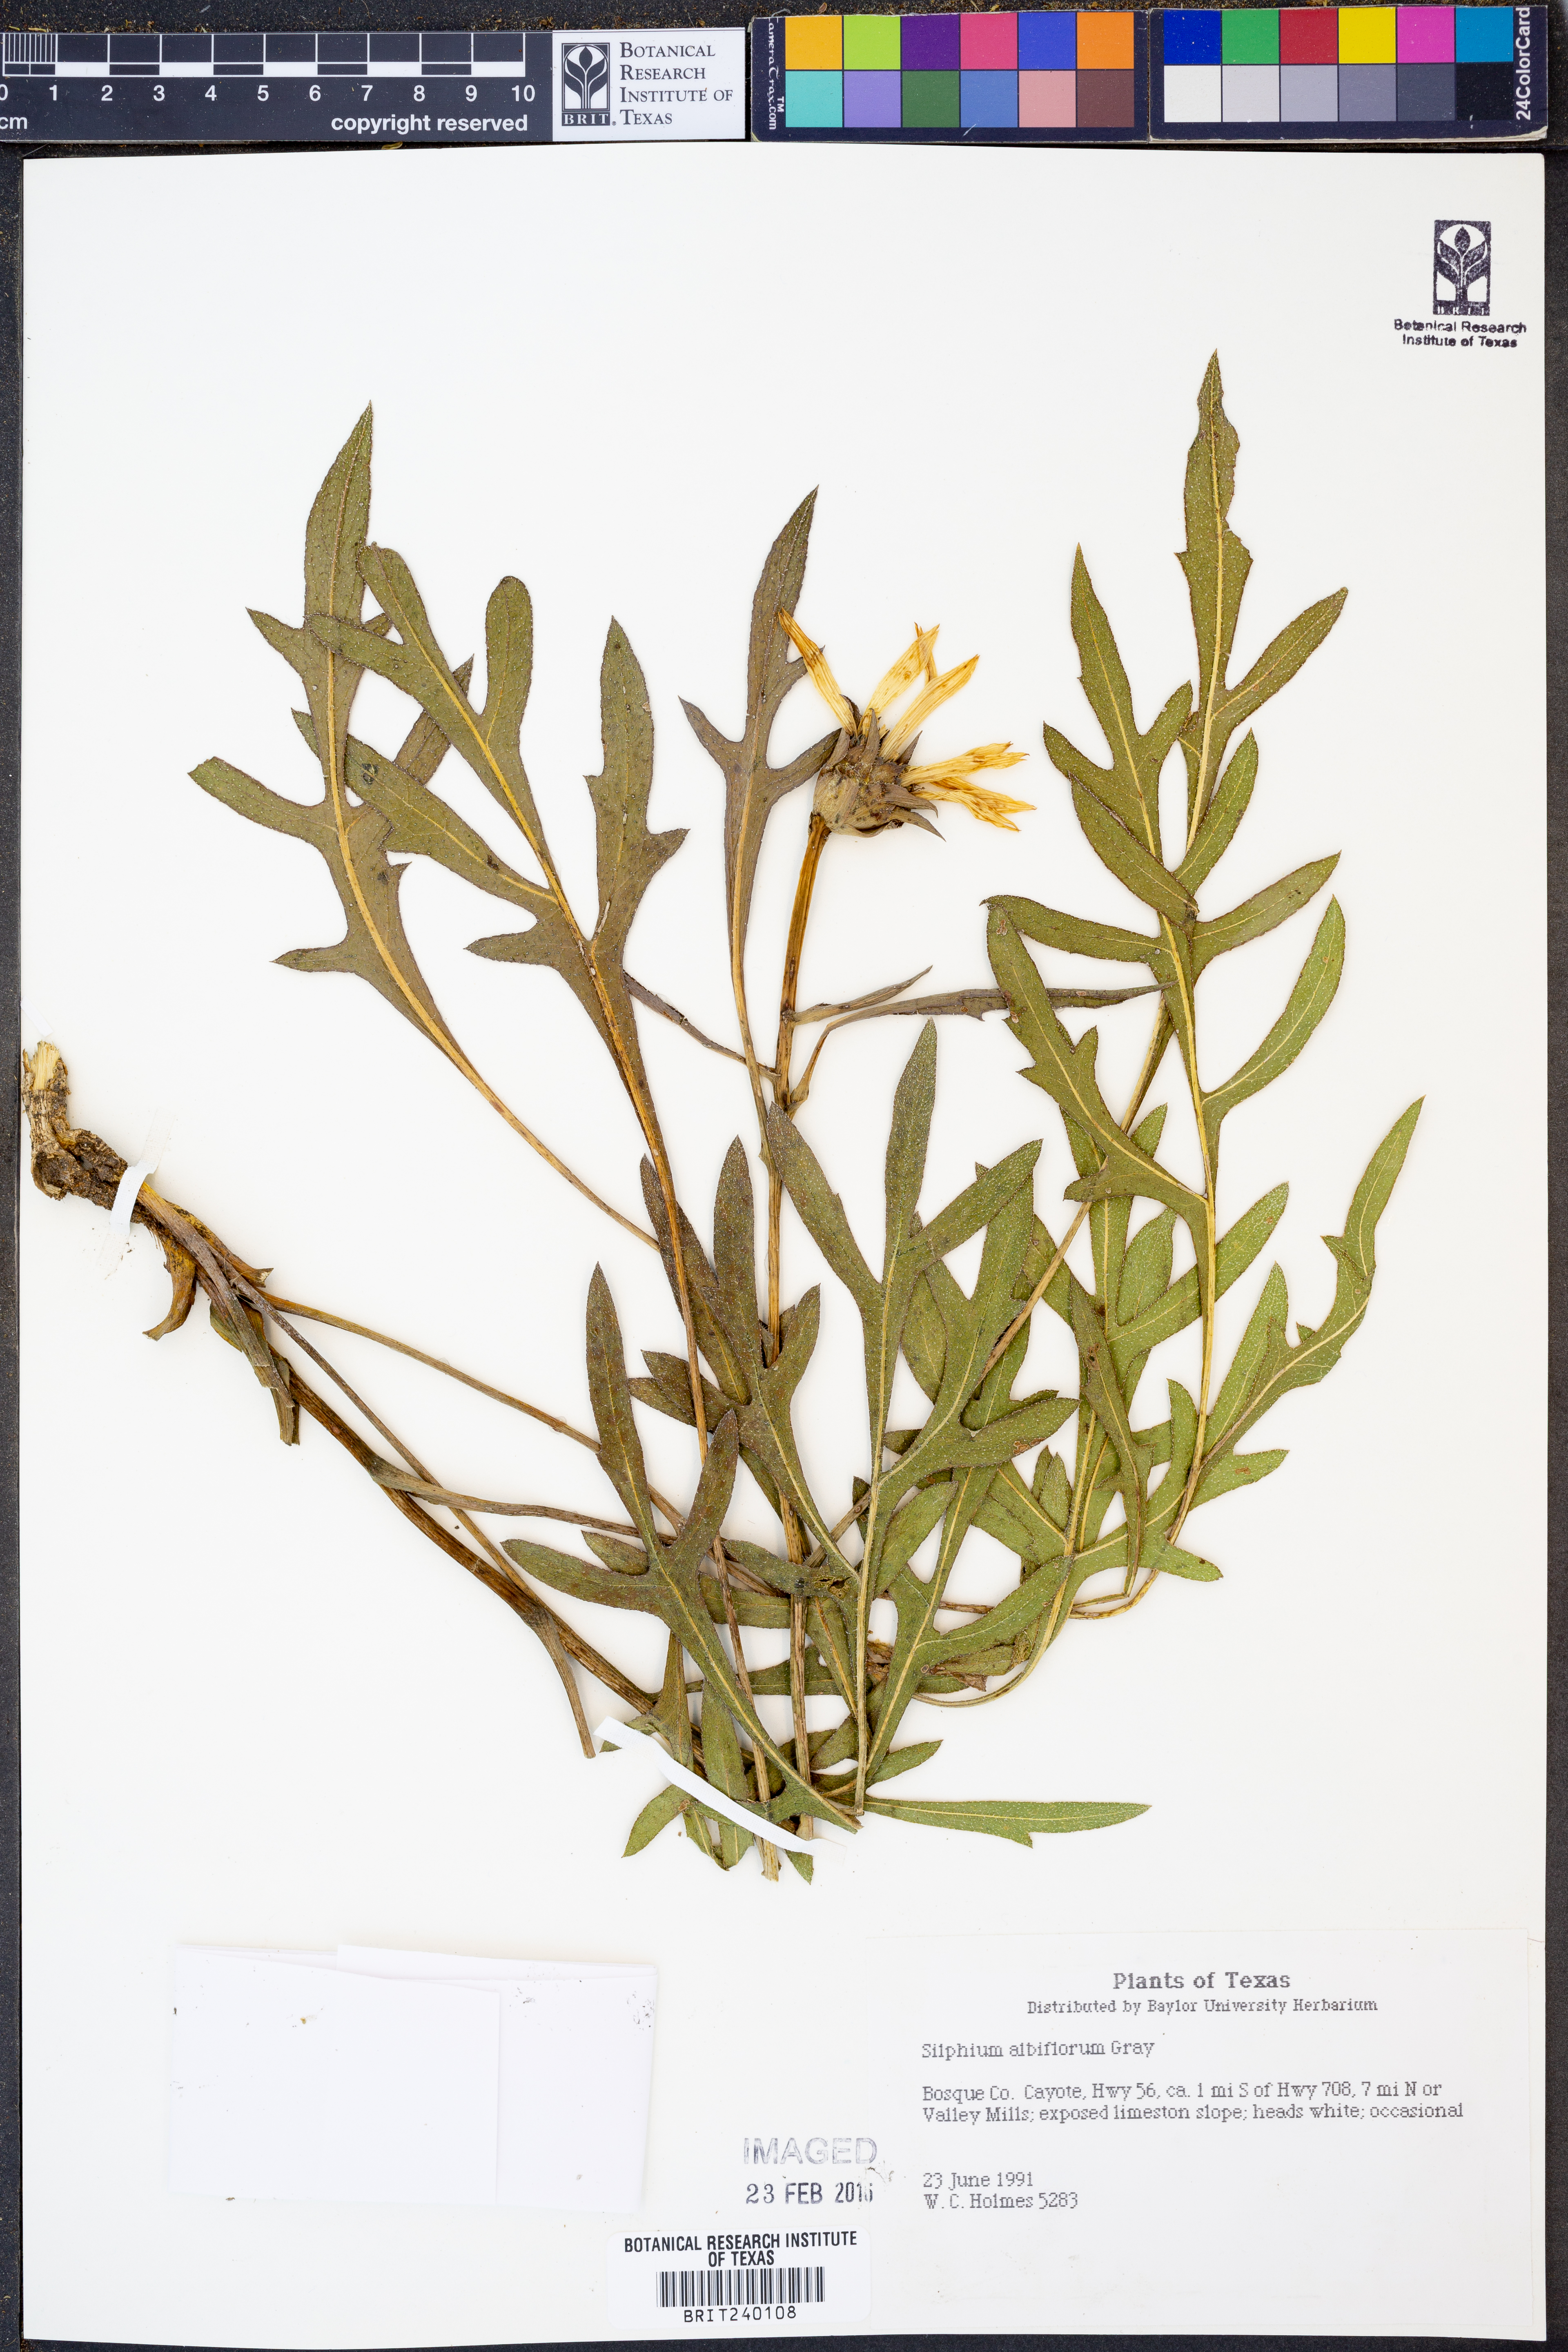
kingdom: Plantae
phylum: Tracheophyta
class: Magnoliopsida
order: Asterales
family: Asteraceae
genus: Silphium
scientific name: Silphium albiflorum
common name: White rosinweed
